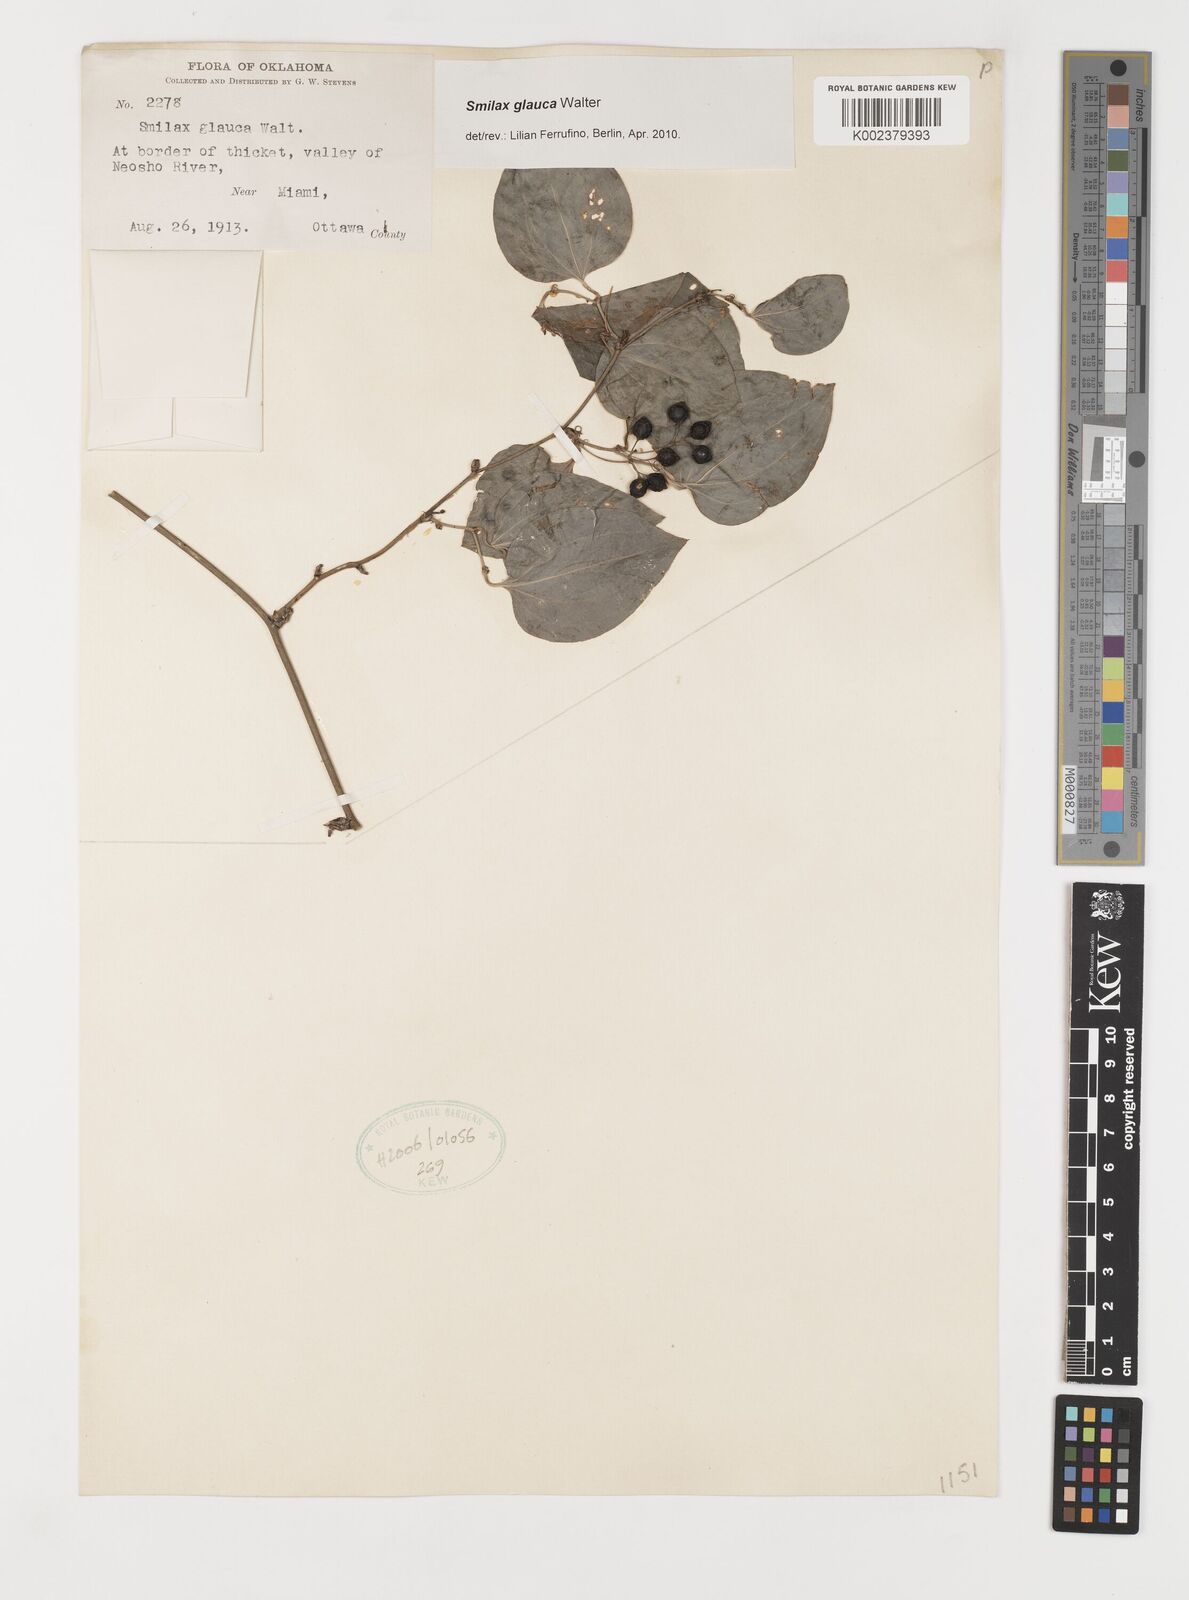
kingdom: Plantae
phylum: Tracheophyta
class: Liliopsida
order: Liliales
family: Smilacaceae
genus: Smilax
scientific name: Smilax glauca
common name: Cat greenbrier
